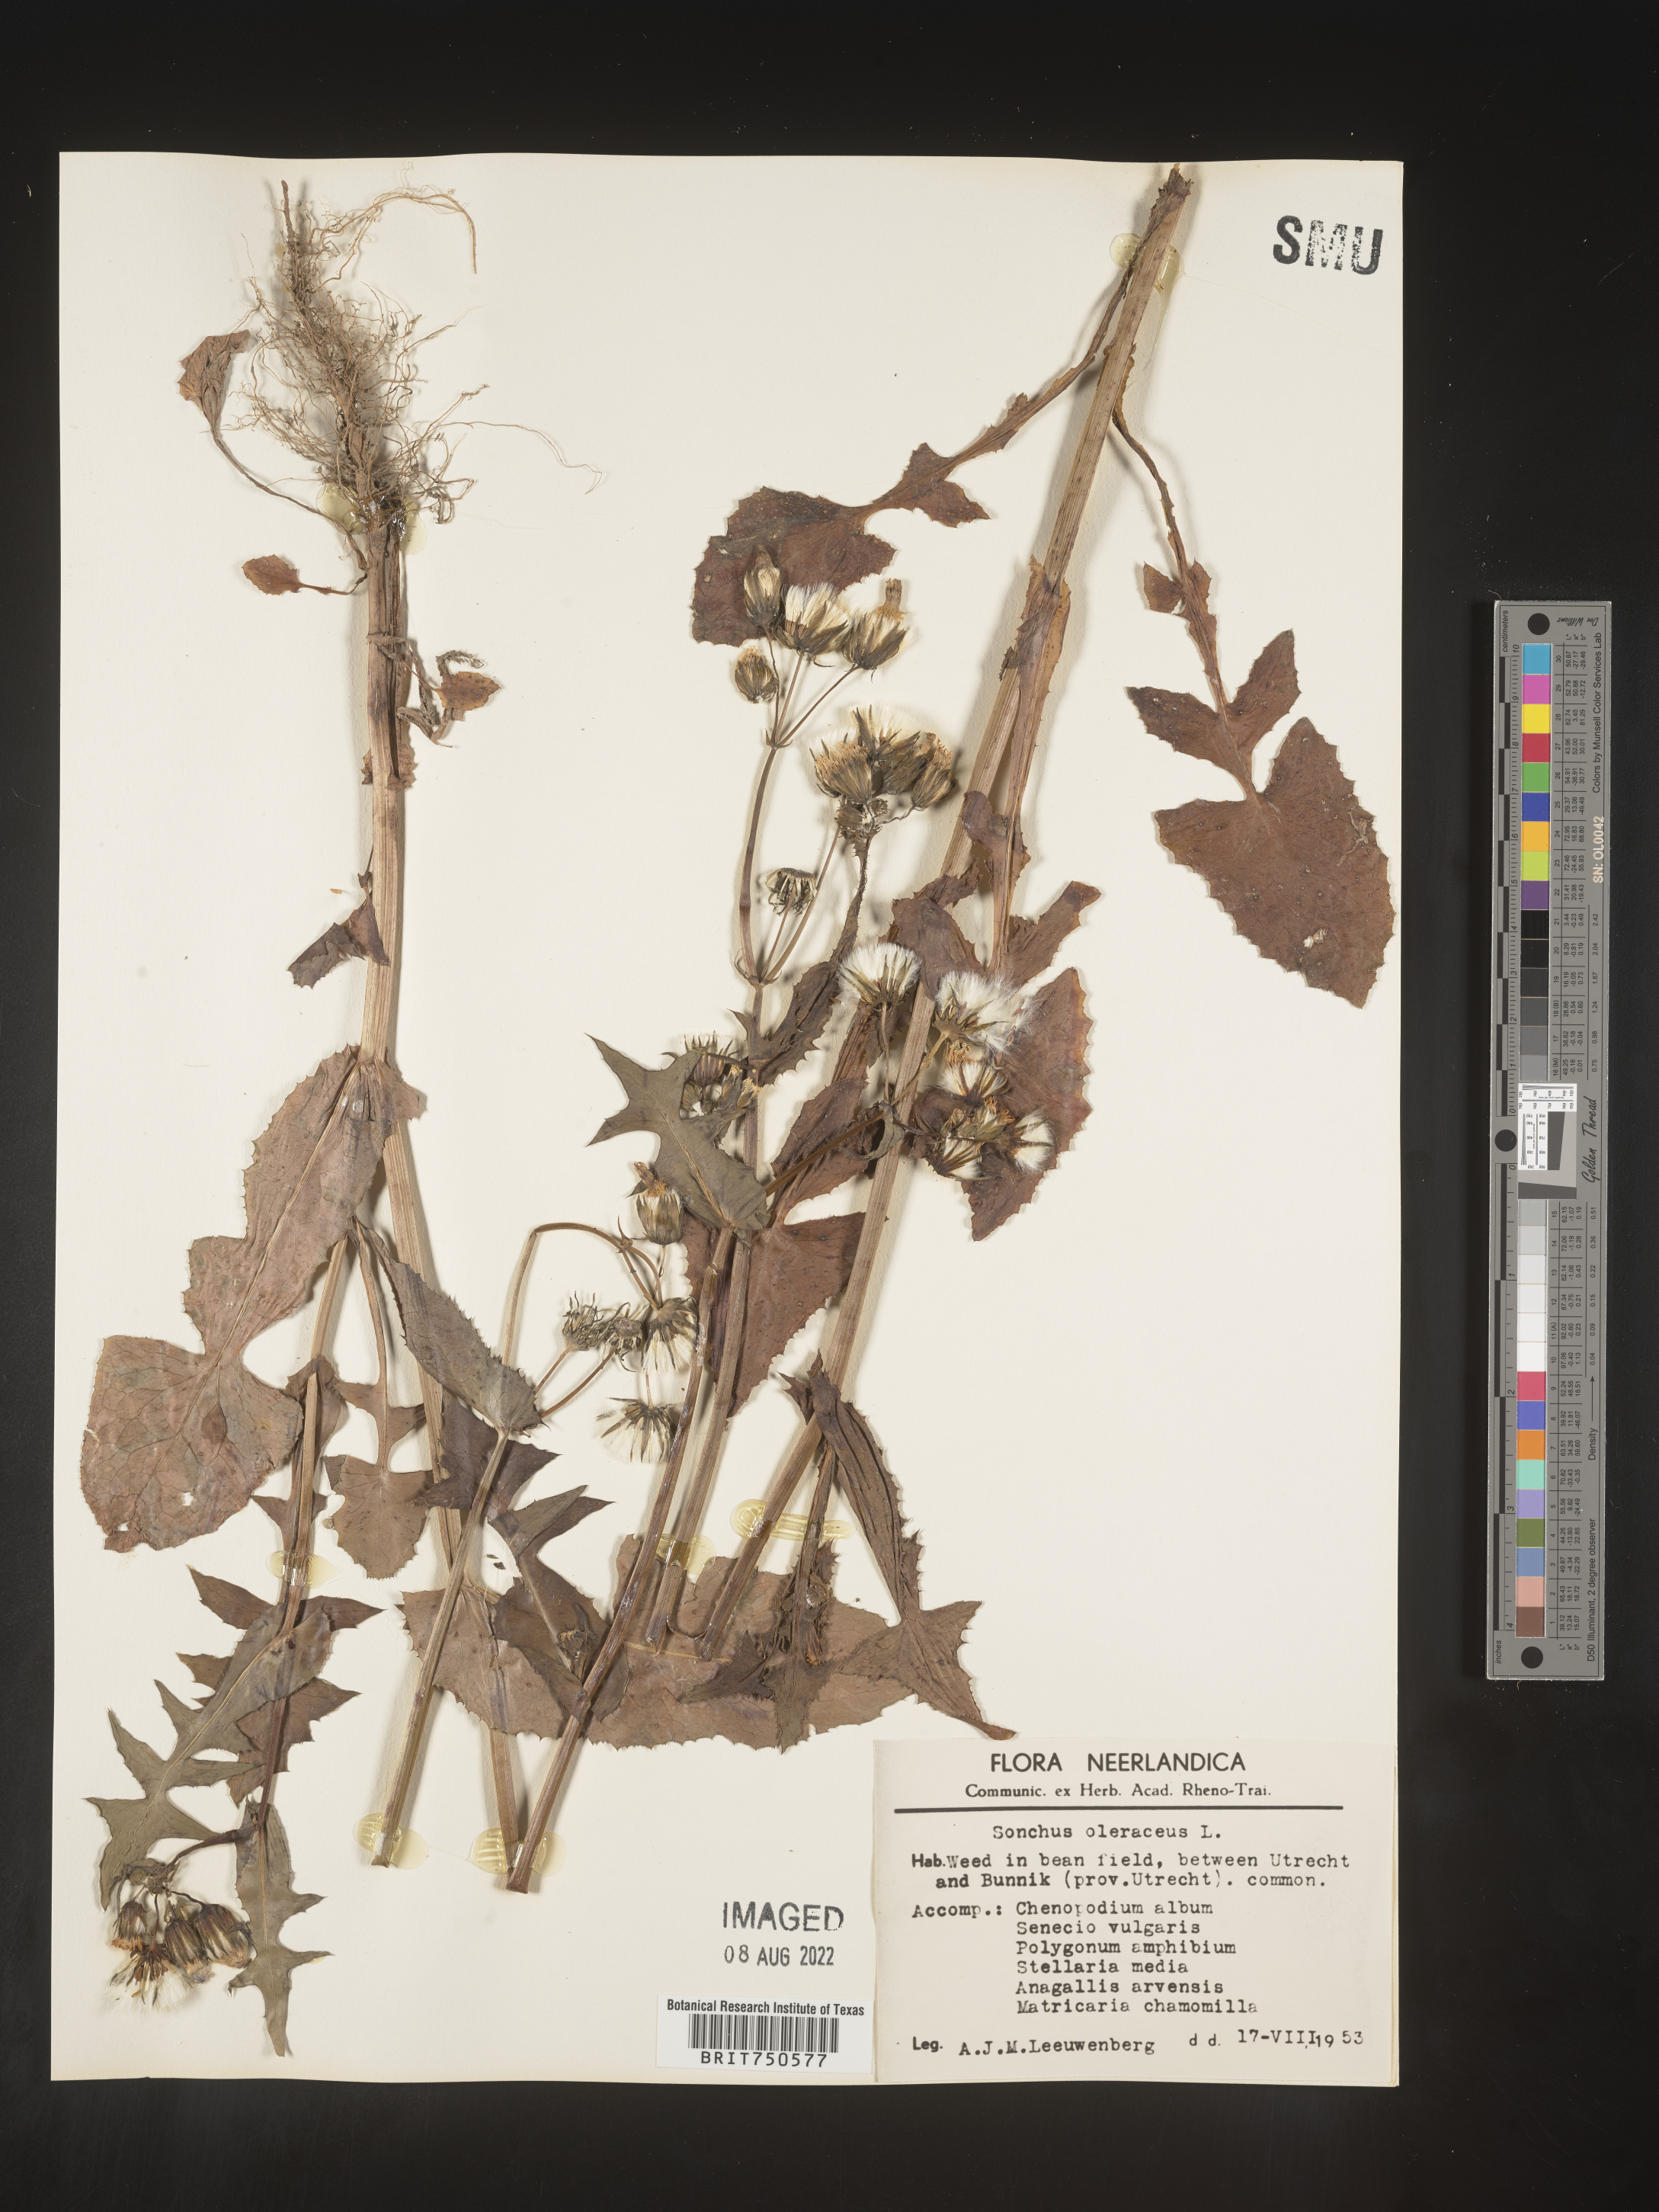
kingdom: Plantae
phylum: Tracheophyta
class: Magnoliopsida
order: Asterales
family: Asteraceae
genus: Sonchus
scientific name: Sonchus
